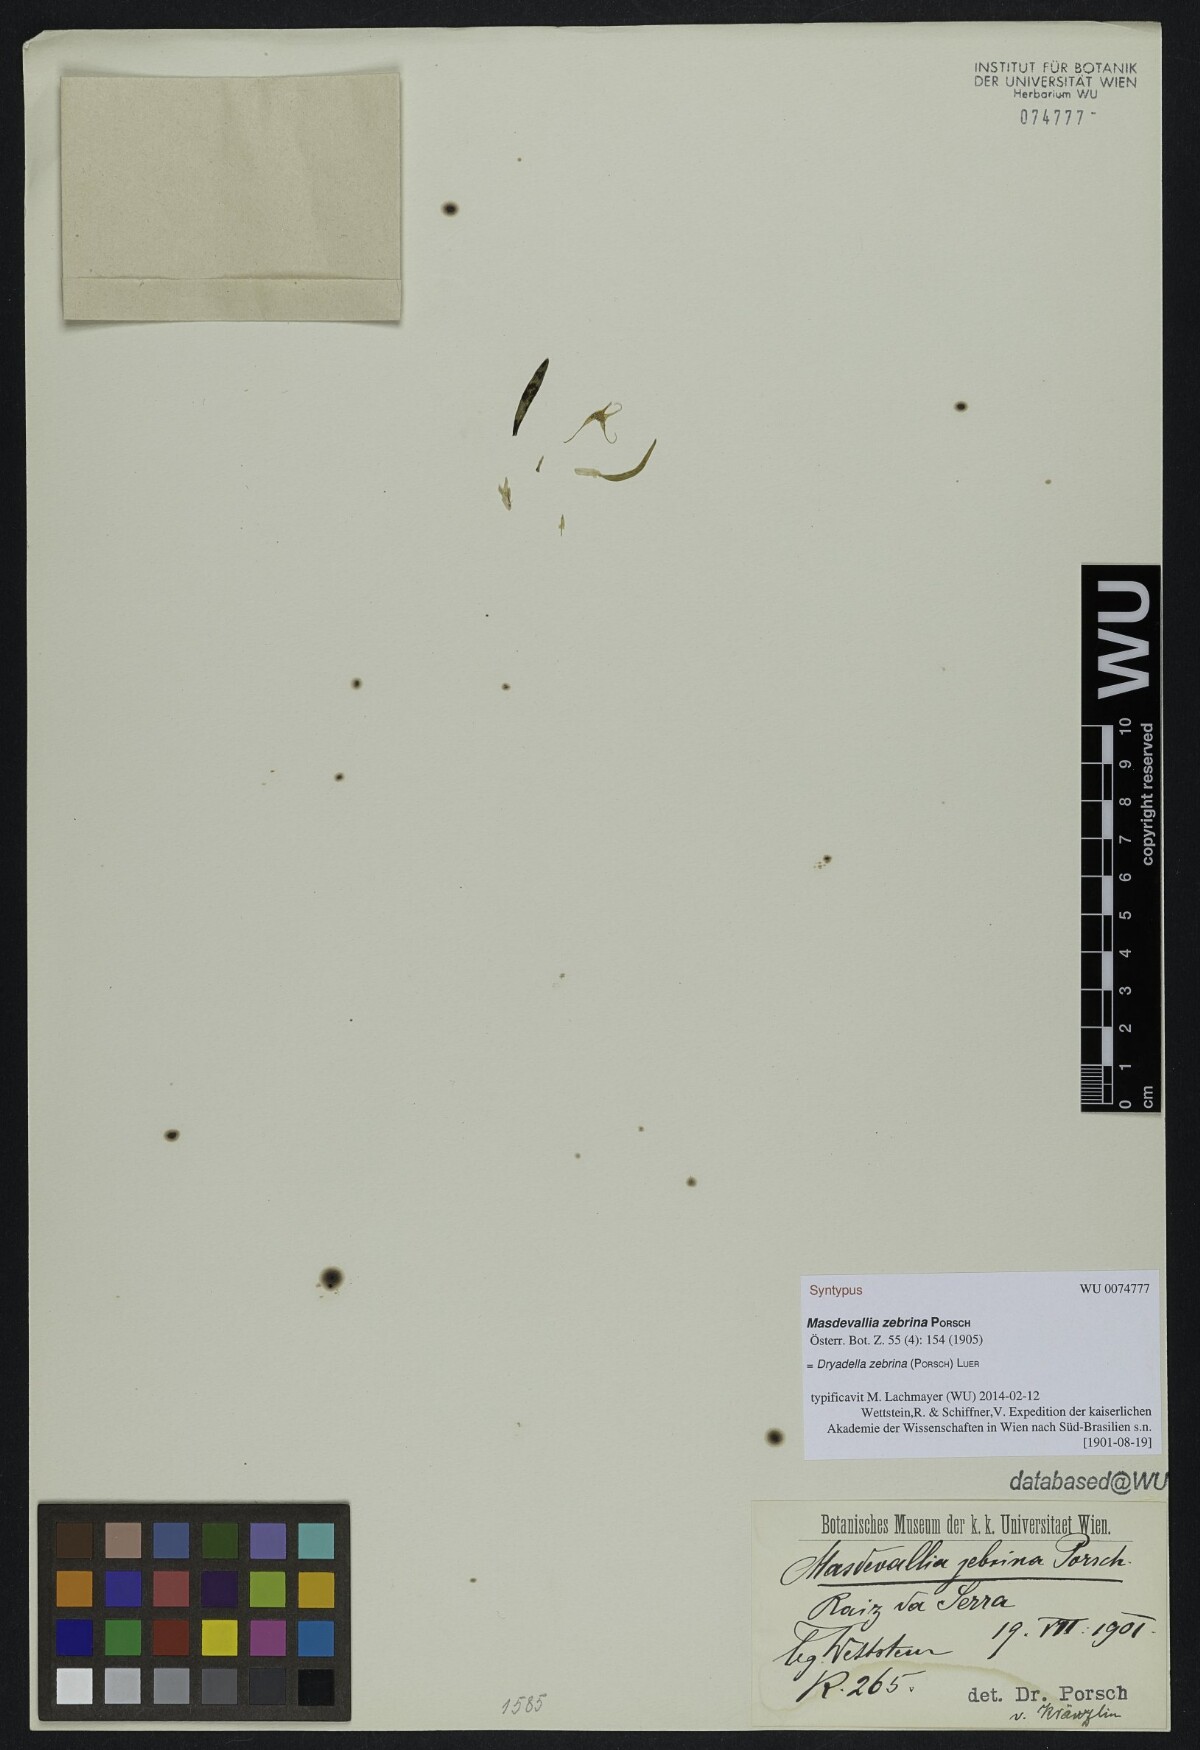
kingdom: Plantae
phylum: Tracheophyta
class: Liliopsida
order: Asparagales
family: Orchidaceae
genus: Dryadella
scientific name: Dryadella zebrina
